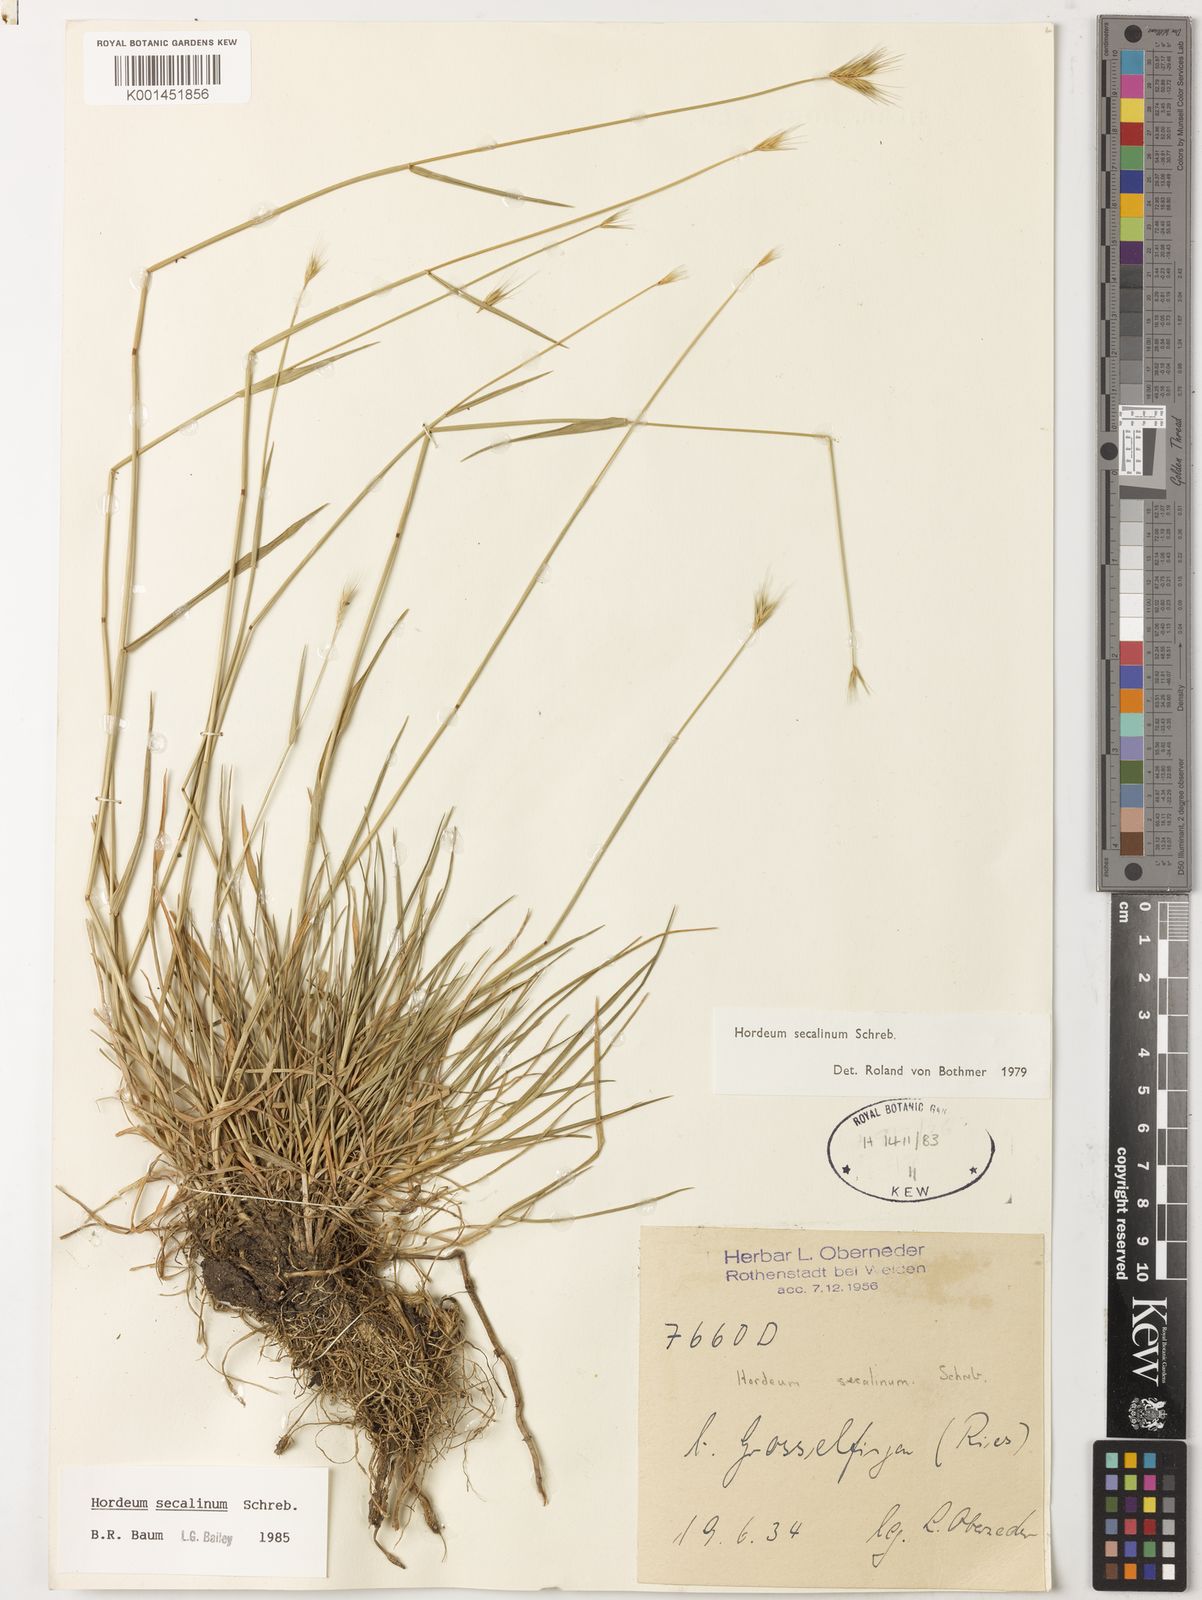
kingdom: Plantae
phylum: Tracheophyta
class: Liliopsida
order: Poales
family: Poaceae
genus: Hordeum
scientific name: Hordeum secalinum
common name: Meadow barley
